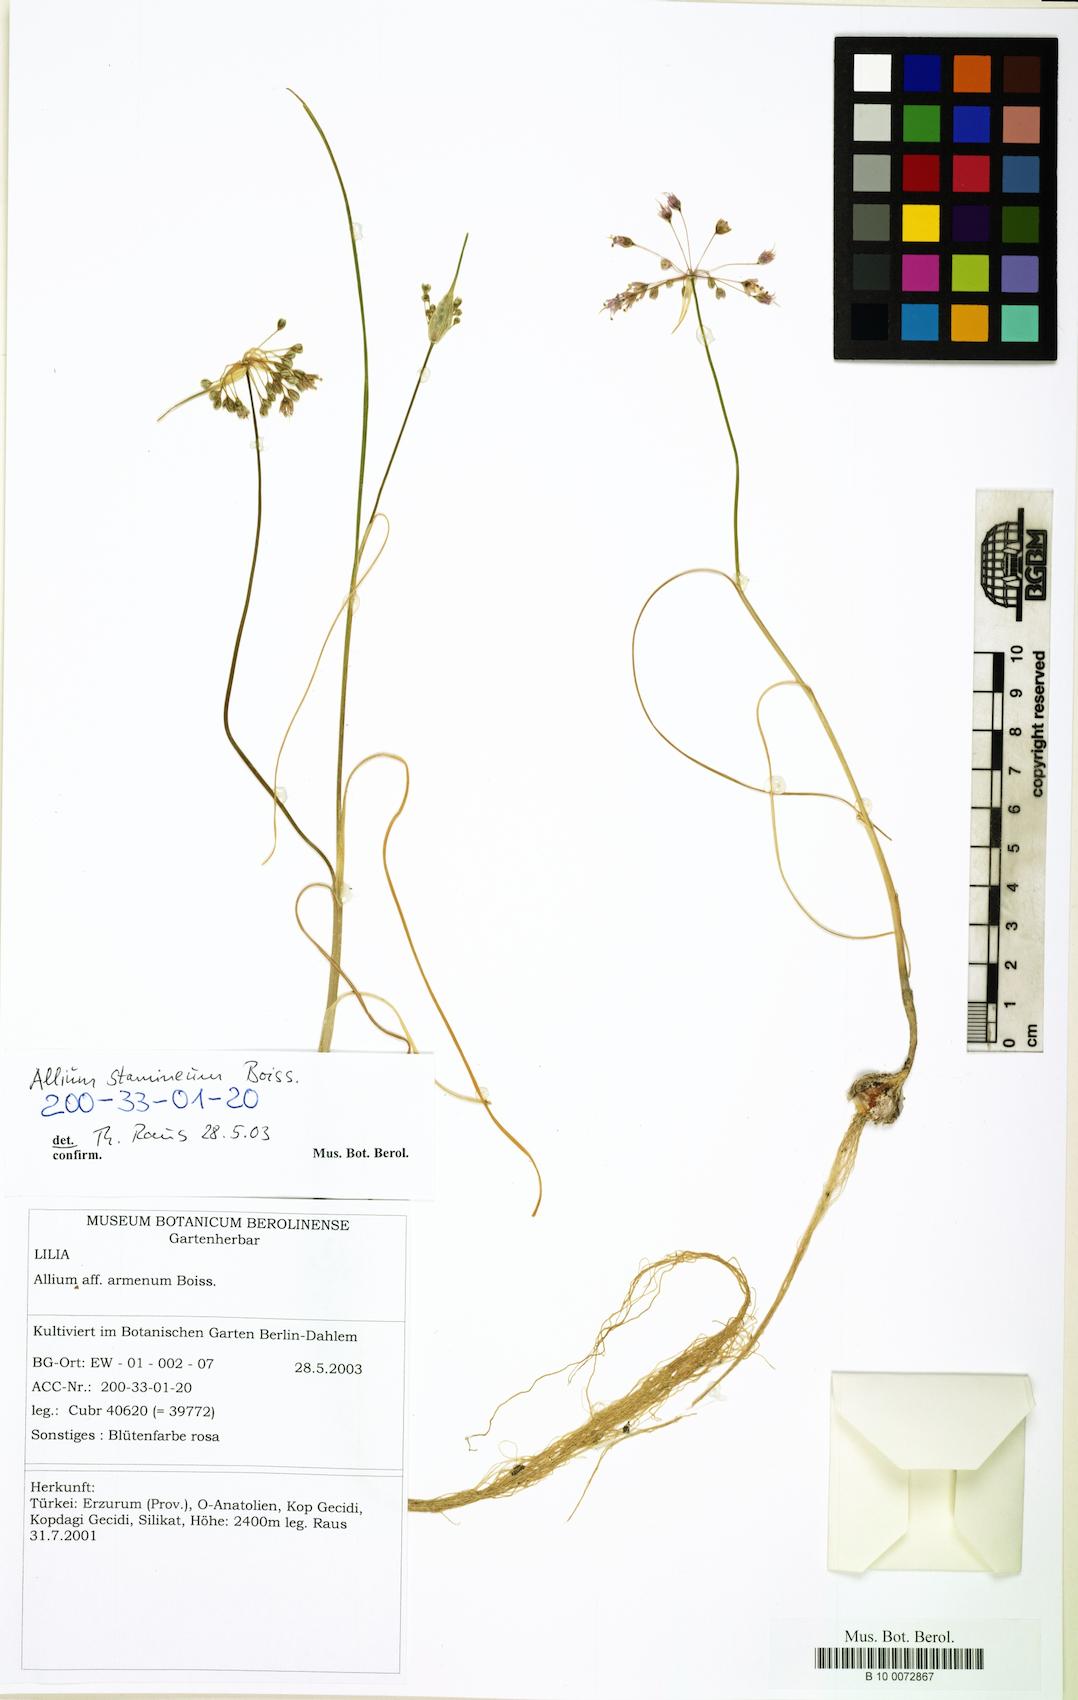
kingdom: Plantae
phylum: Tracheophyta
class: Liliopsida
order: Asparagales
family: Amaryllidaceae
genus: Allium
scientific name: Allium stamineum
